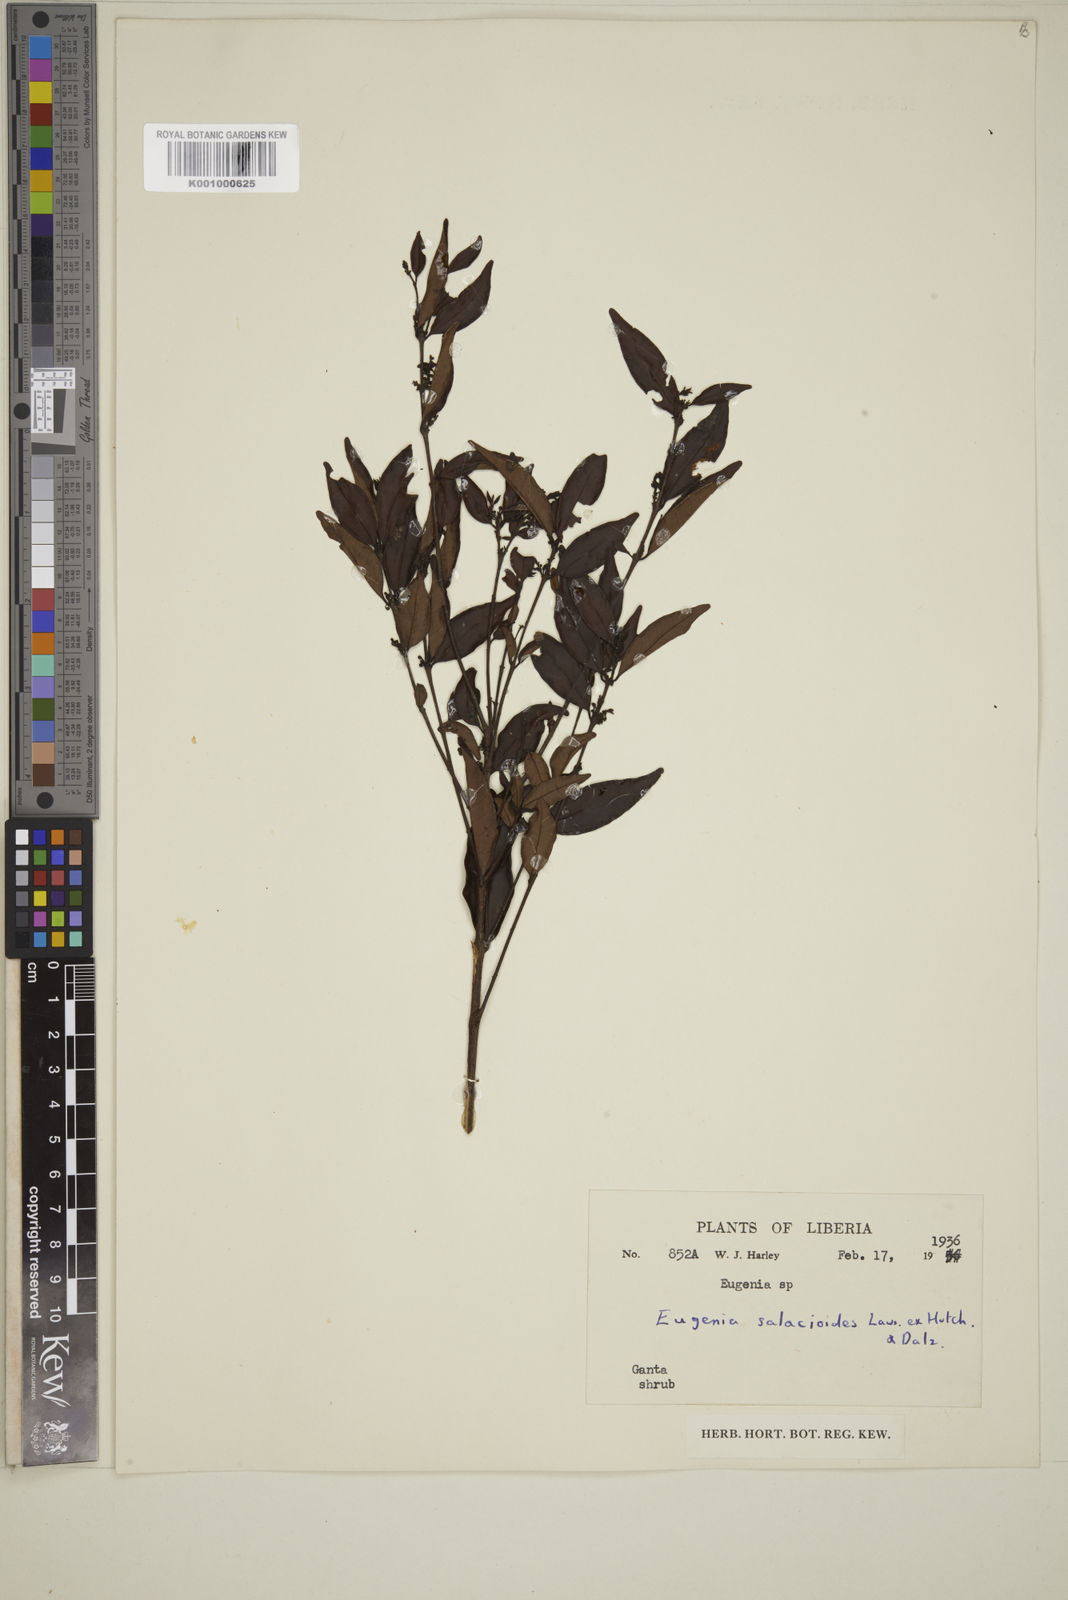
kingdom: Plantae
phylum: Tracheophyta
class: Magnoliopsida
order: Myrtales
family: Myrtaceae
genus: Eugenia
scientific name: Eugenia leonensis
